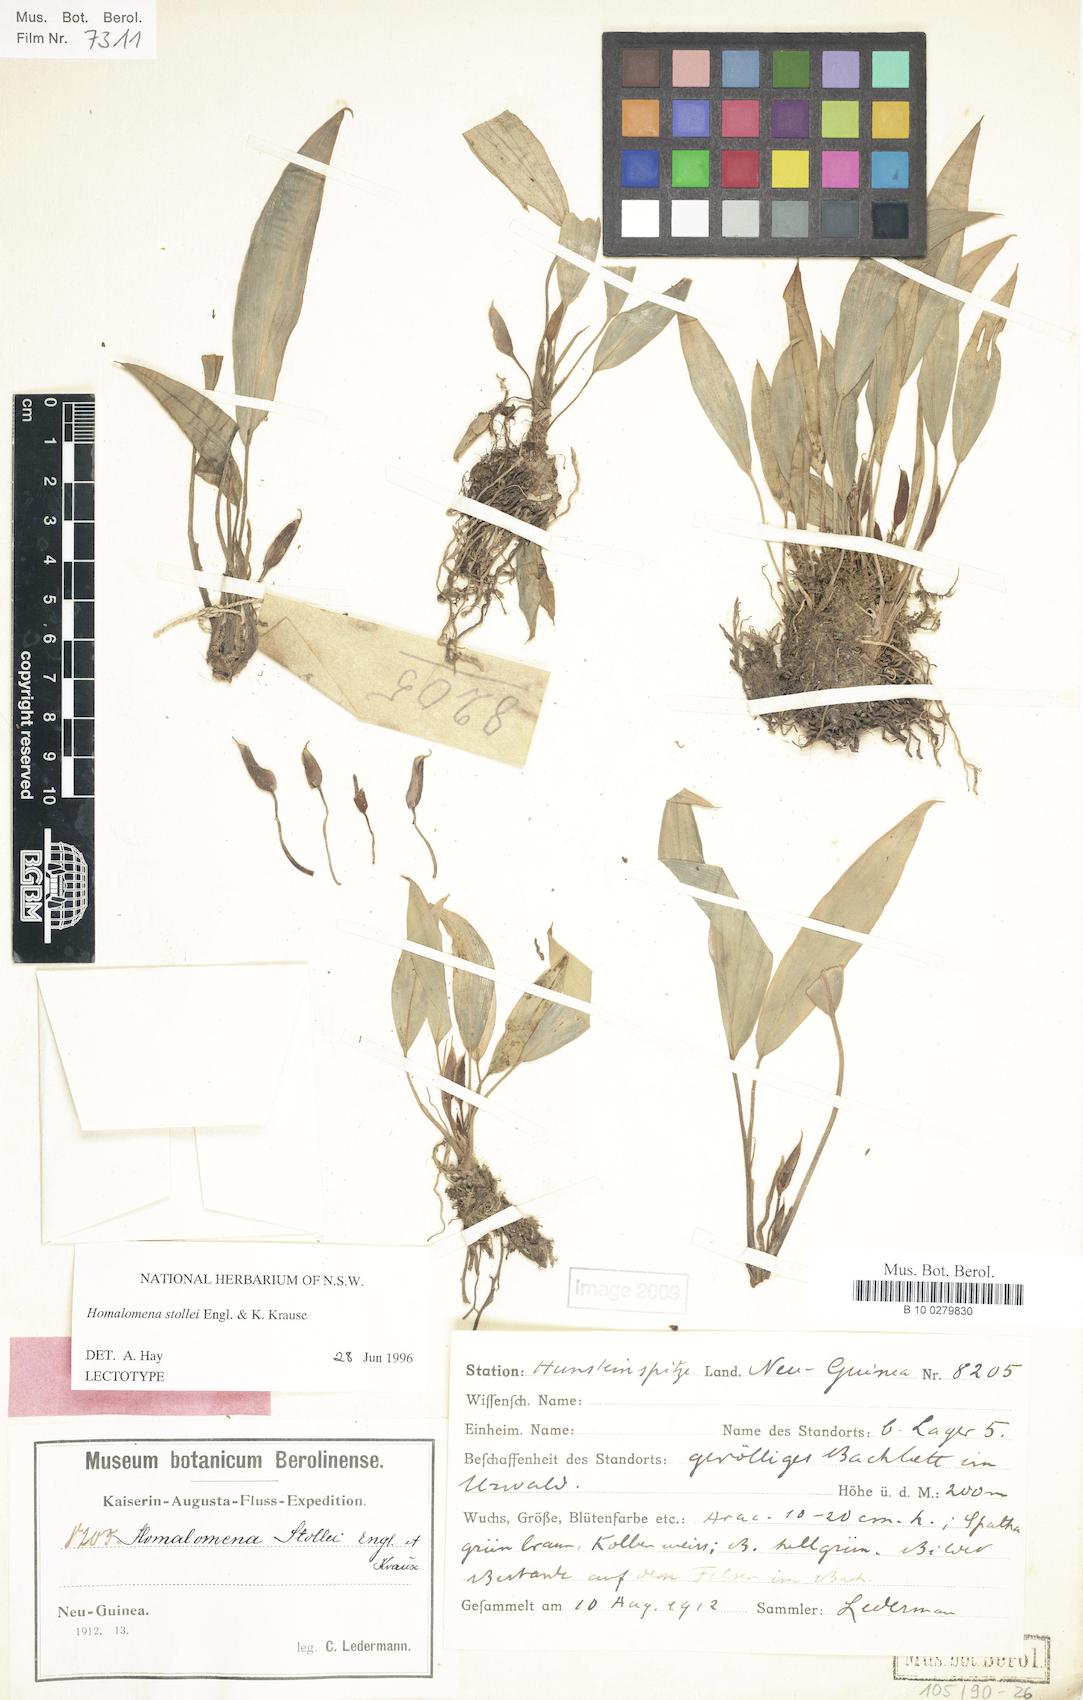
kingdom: Plantae
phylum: Tracheophyta
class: Liliopsida
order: Alismatales
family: Araceae
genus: Homalomena
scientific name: Homalomena stollei
